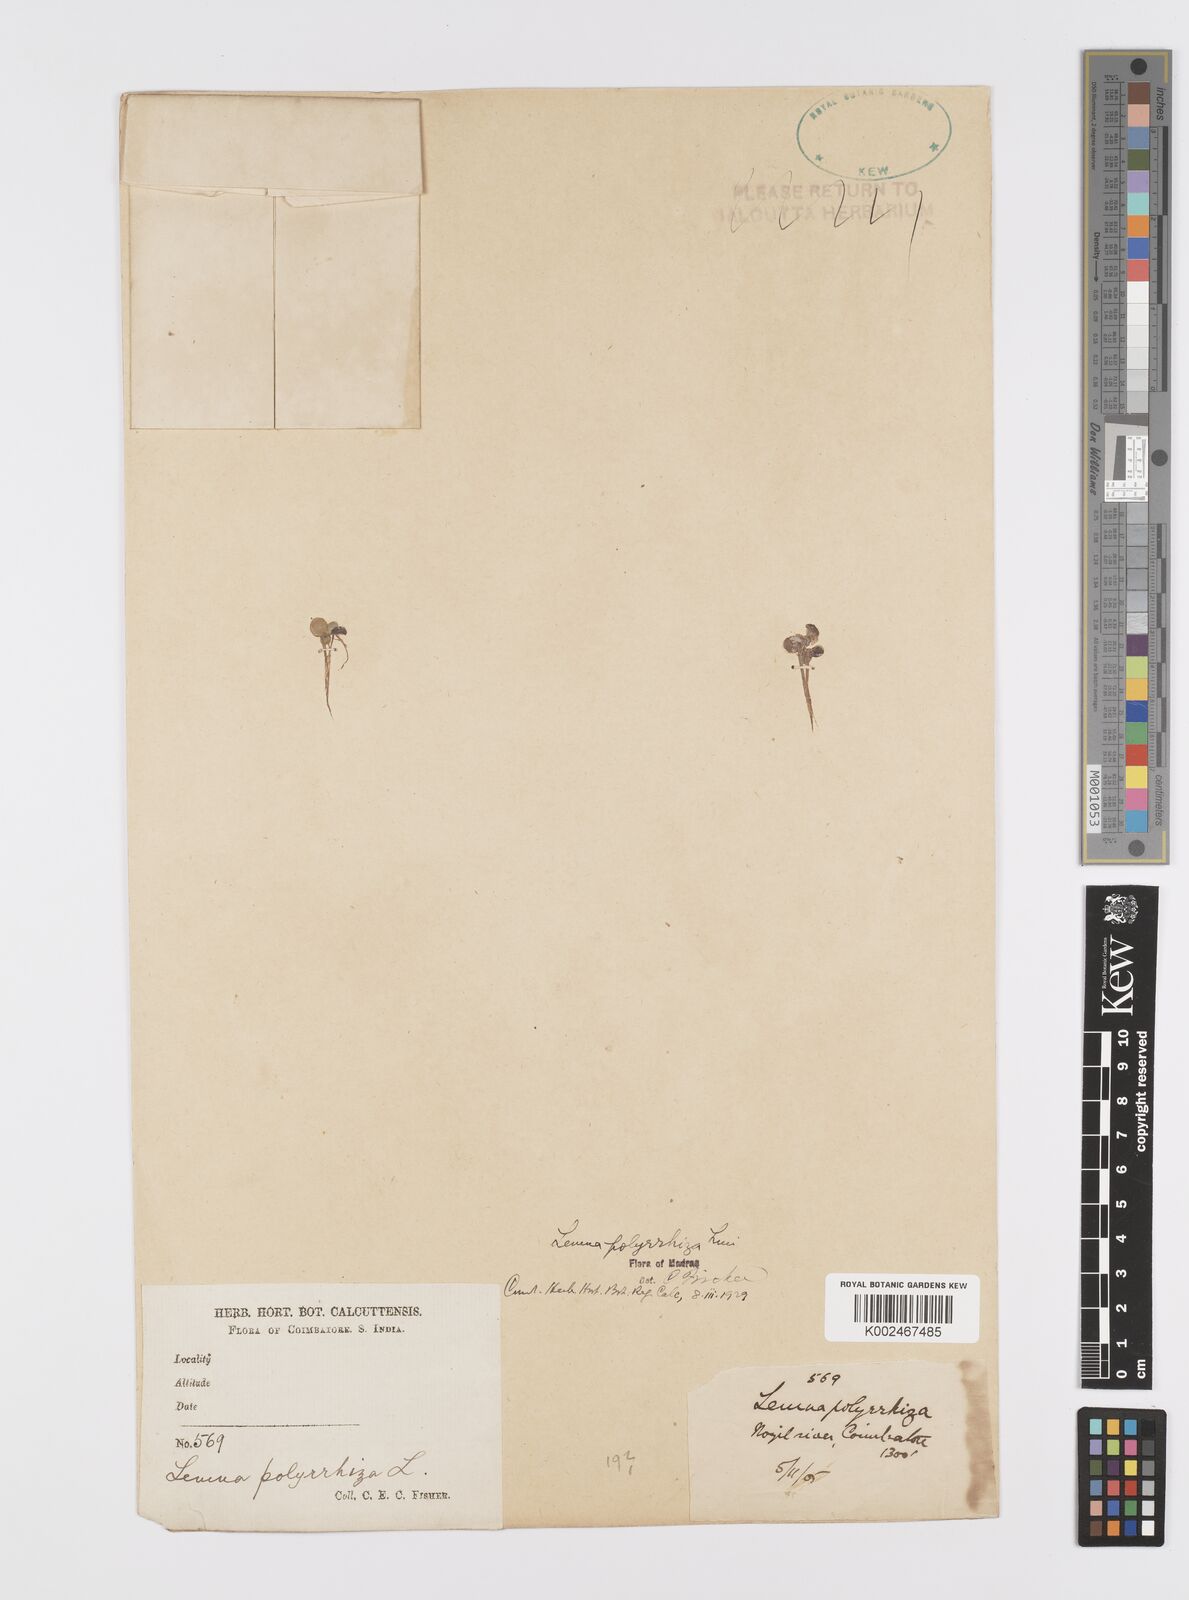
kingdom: Plantae
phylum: Tracheophyta
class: Liliopsida
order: Alismatales
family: Araceae
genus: Spirodela
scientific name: Spirodela polyrhiza
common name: Great duckweed
